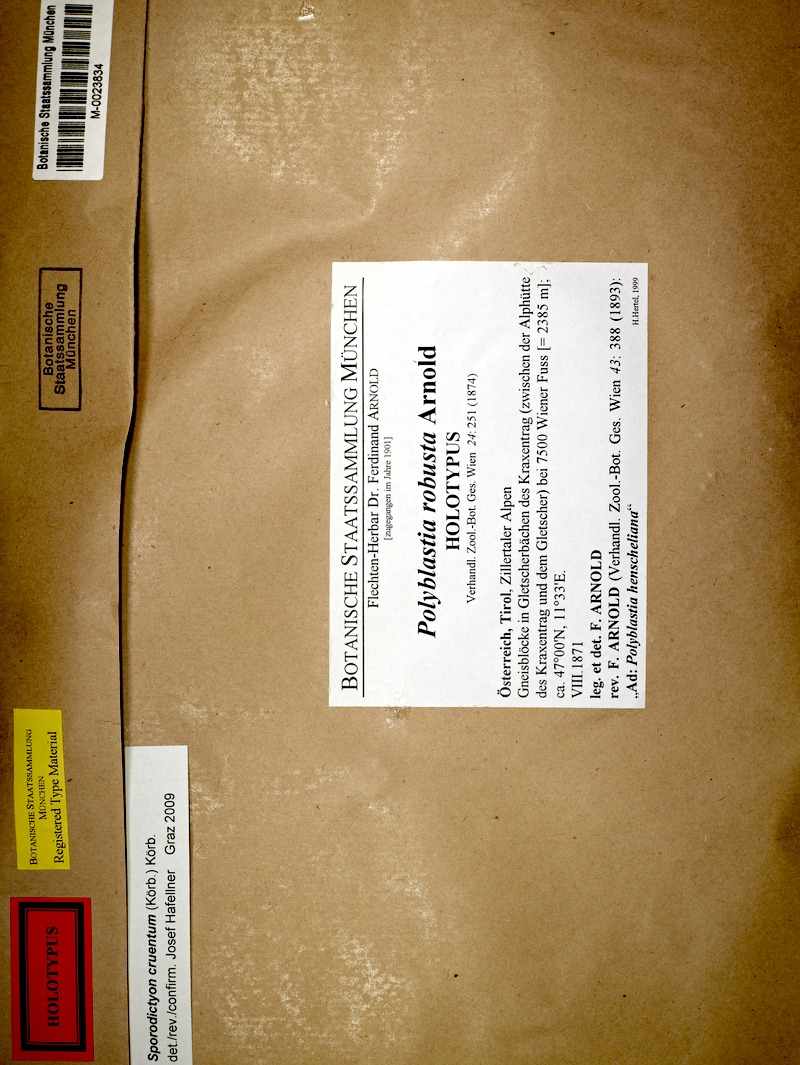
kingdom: Fungi
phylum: Ascomycota
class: Eurotiomycetes
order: Verrucariales
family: Verrucariaceae
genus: Sporodictyon
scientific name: Sporodictyon cruentum
